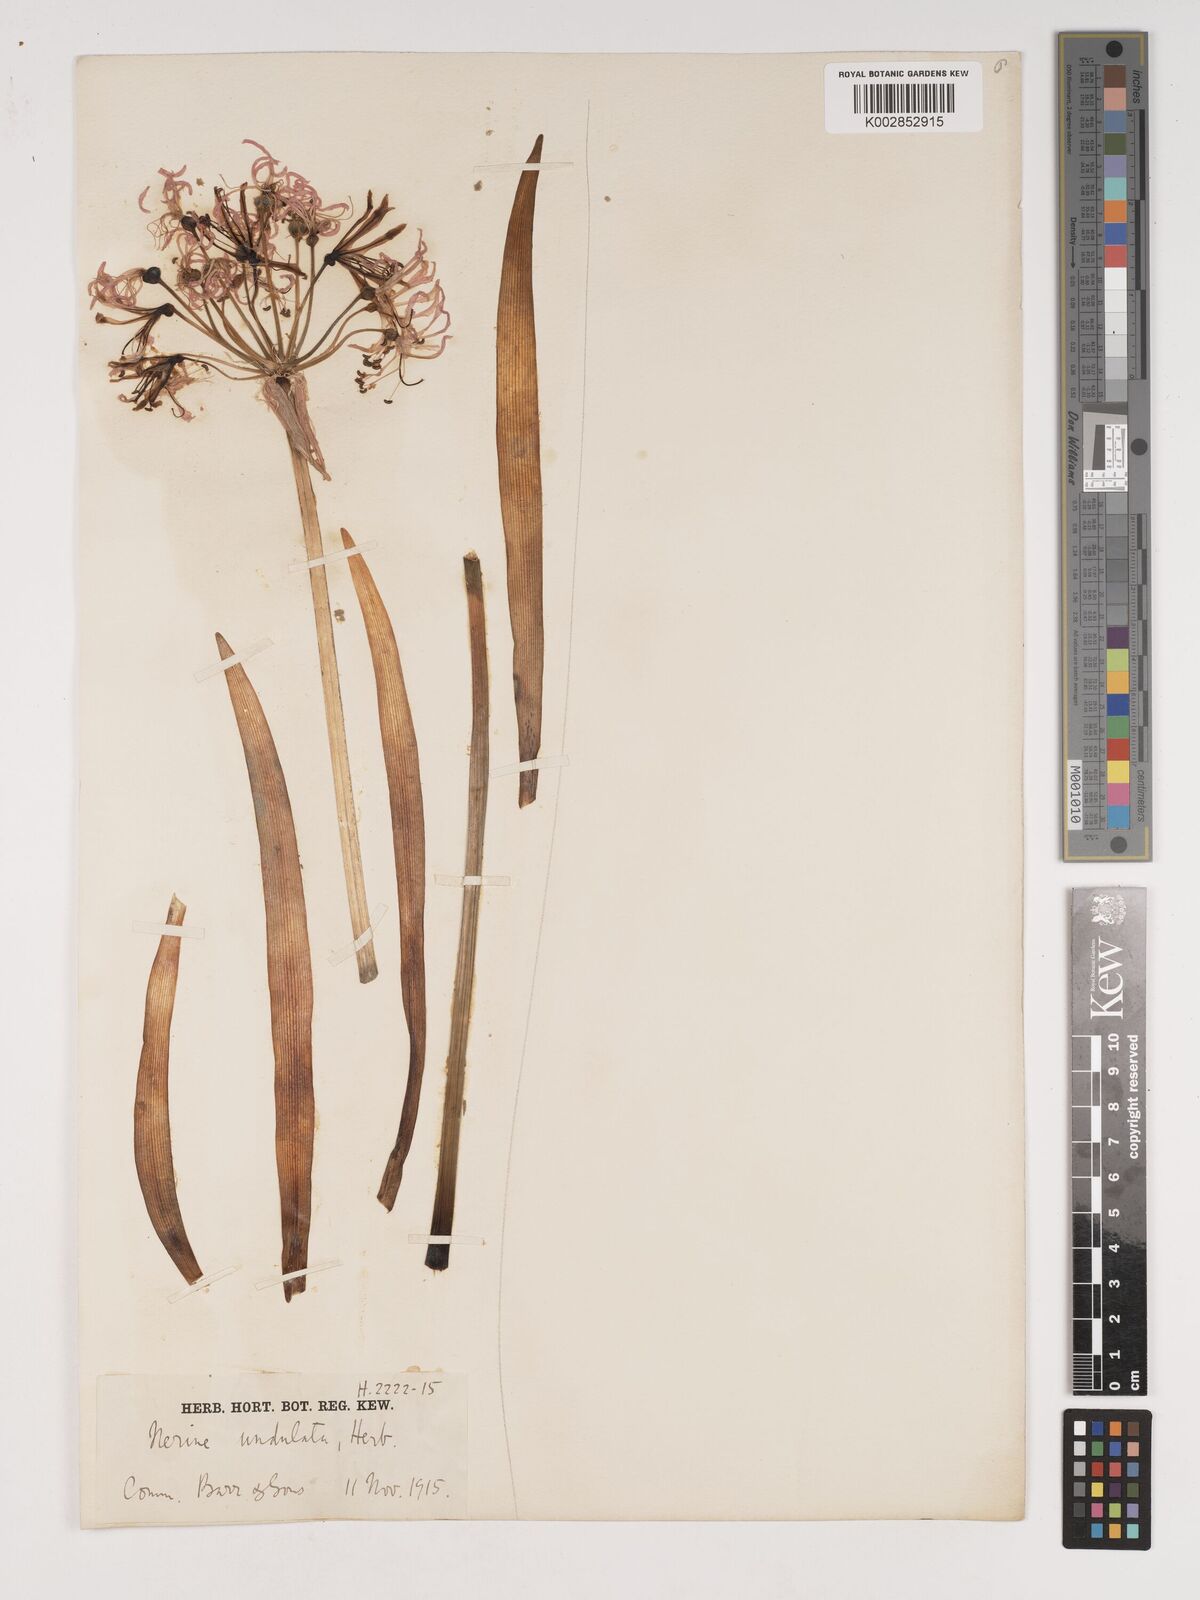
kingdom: Plantae
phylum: Tracheophyta
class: Liliopsida
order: Asparagales
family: Amaryllidaceae
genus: Nerine
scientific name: Nerine undulata
